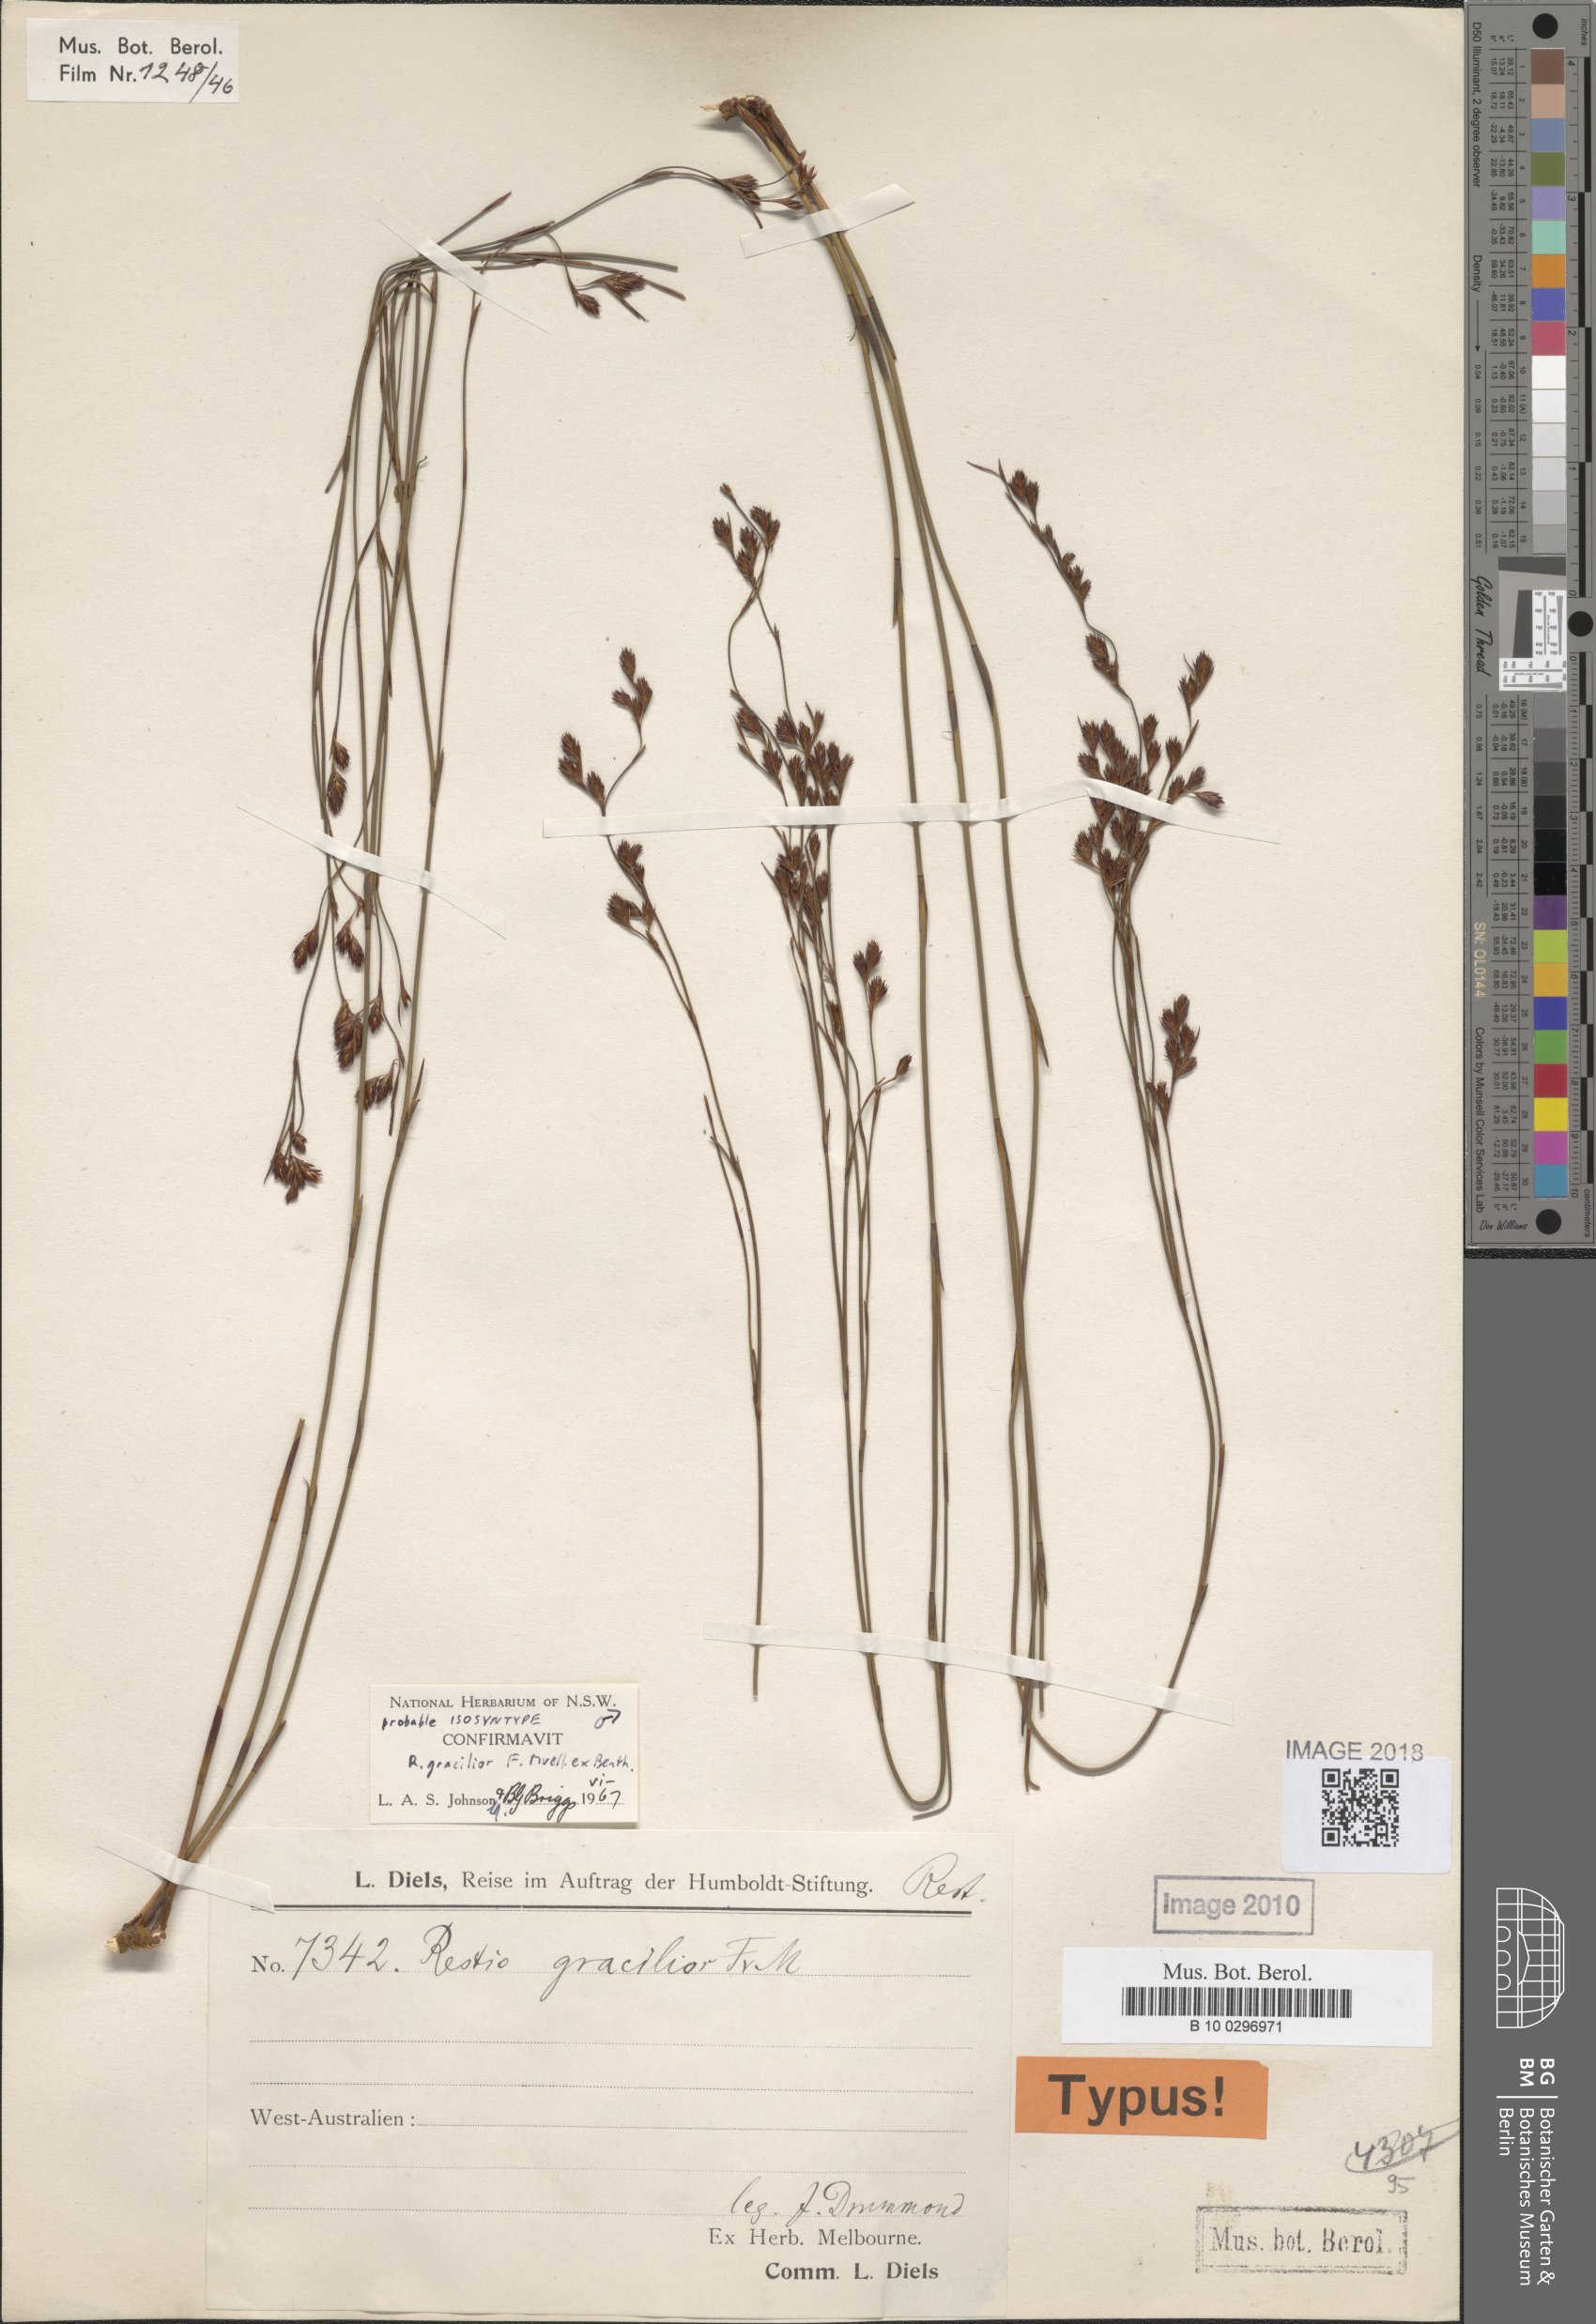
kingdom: Plantae
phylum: Tracheophyta
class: Liliopsida
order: Poales
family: Restionaceae
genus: Chordifex
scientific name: Chordifex gracilior
